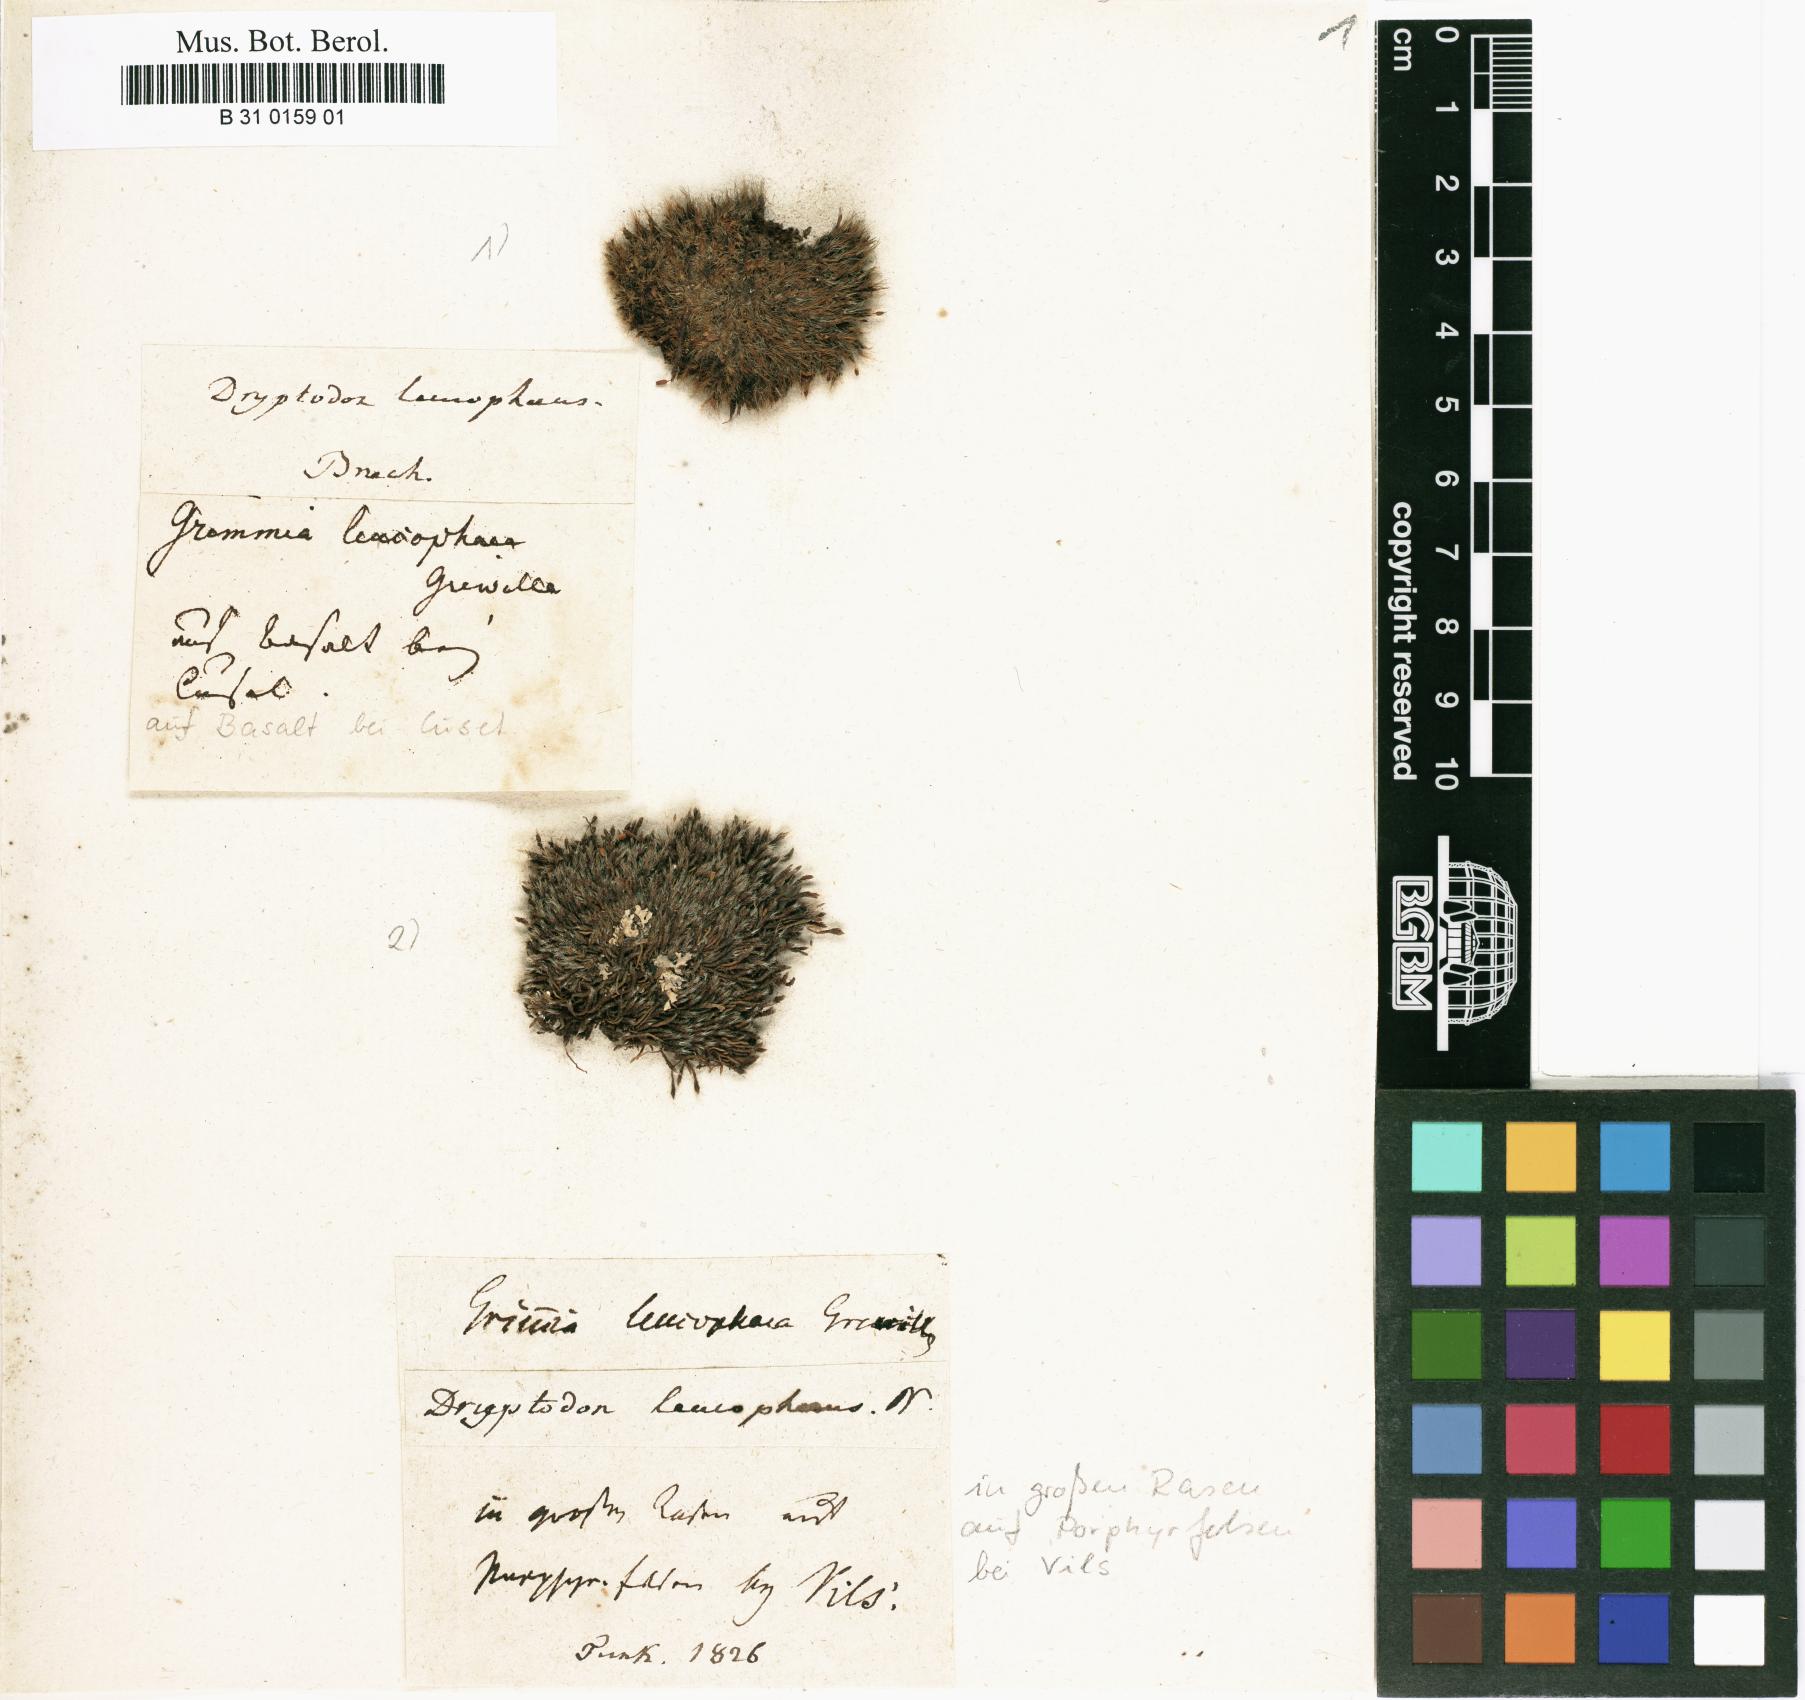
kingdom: Plantae
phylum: Bryophyta
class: Bryopsida
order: Grimmiales
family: Grimmiaceae
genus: Grimmia
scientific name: Grimmia laevigata
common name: Hoary grimmia
